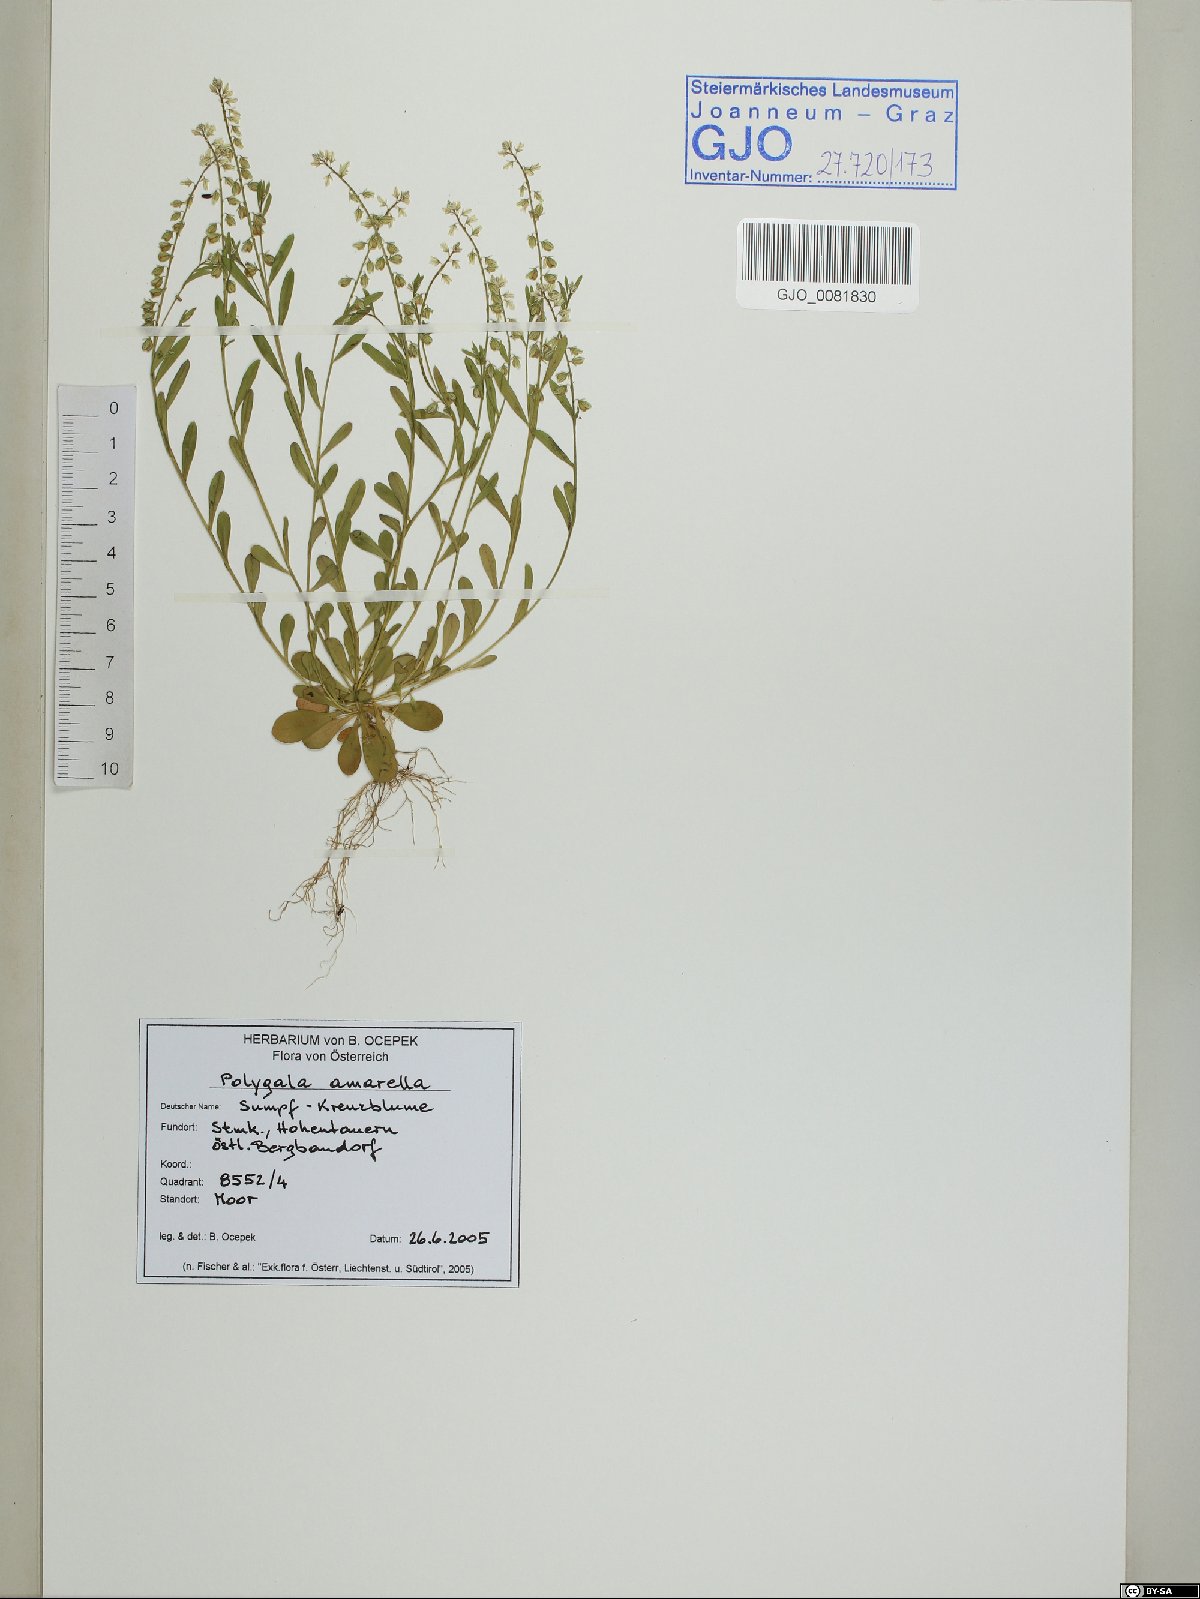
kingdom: Plantae
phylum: Tracheophyta
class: Magnoliopsida
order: Fabales
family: Polygalaceae
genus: Polygala
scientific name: Polygala amarella
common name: Dwarf milkwort
